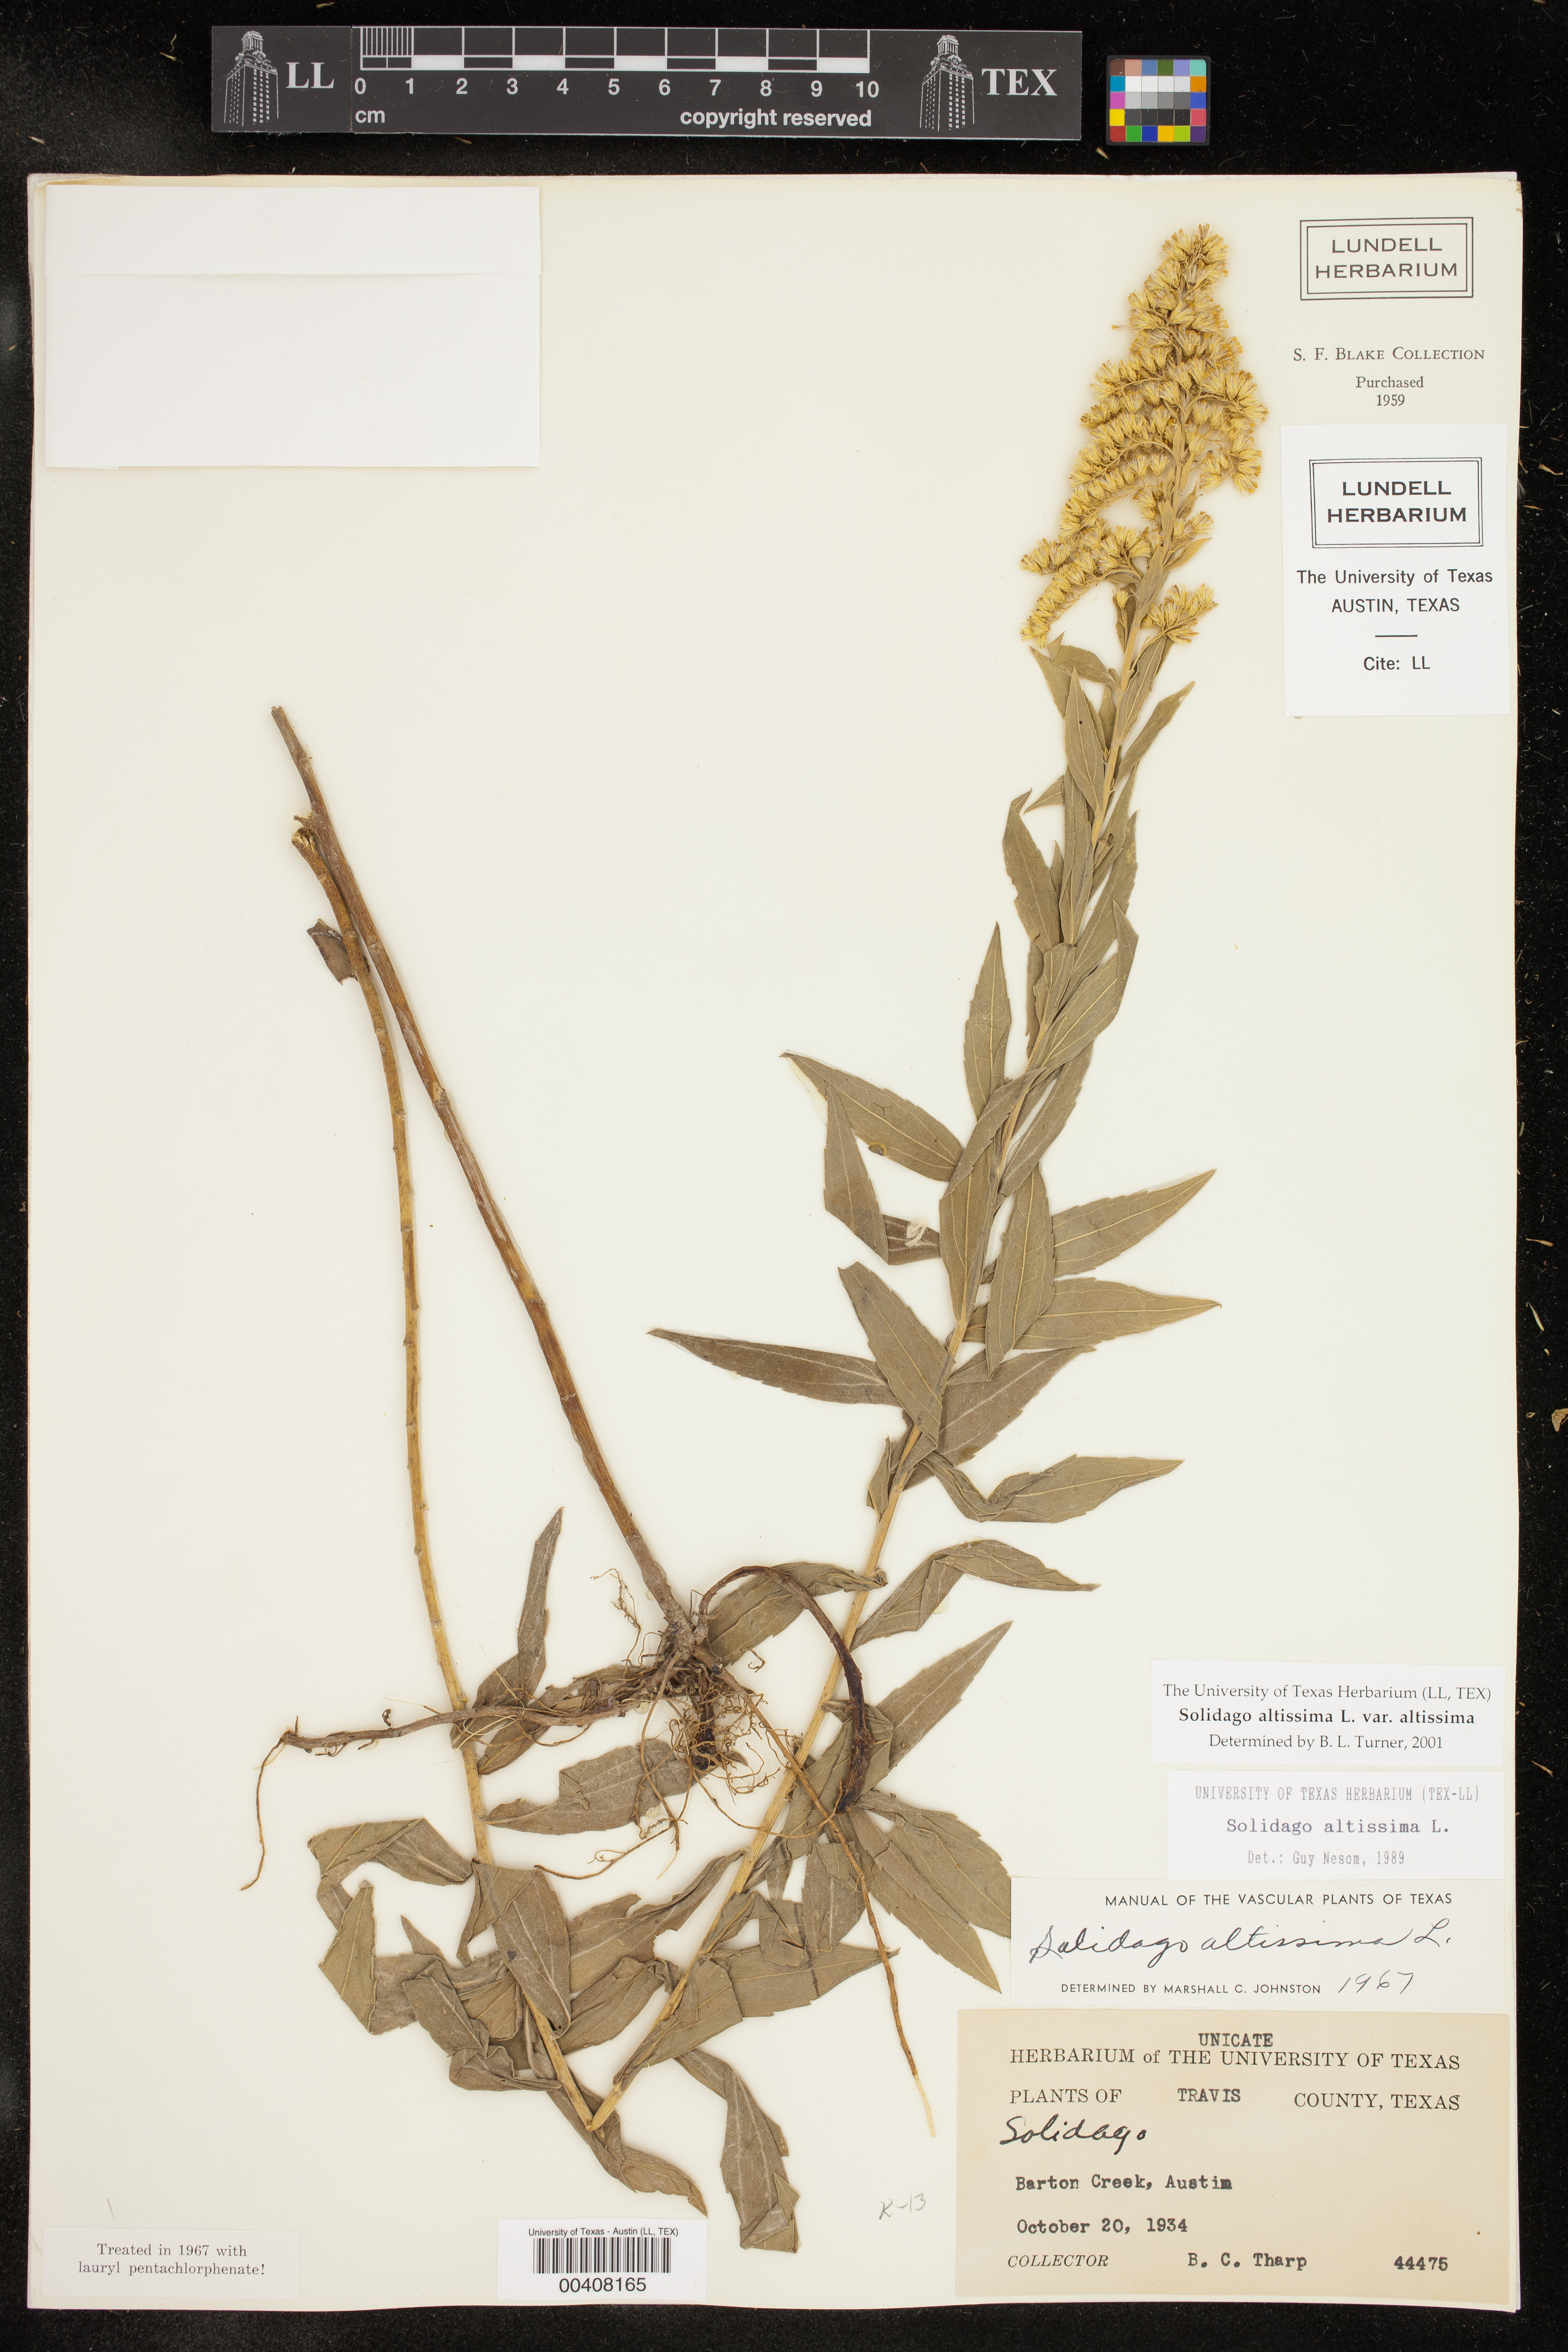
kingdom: Plantae
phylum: Tracheophyta
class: Magnoliopsida
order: Asterales
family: Asteraceae
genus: Solidago
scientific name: Solidago altissima
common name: Late goldenrod
